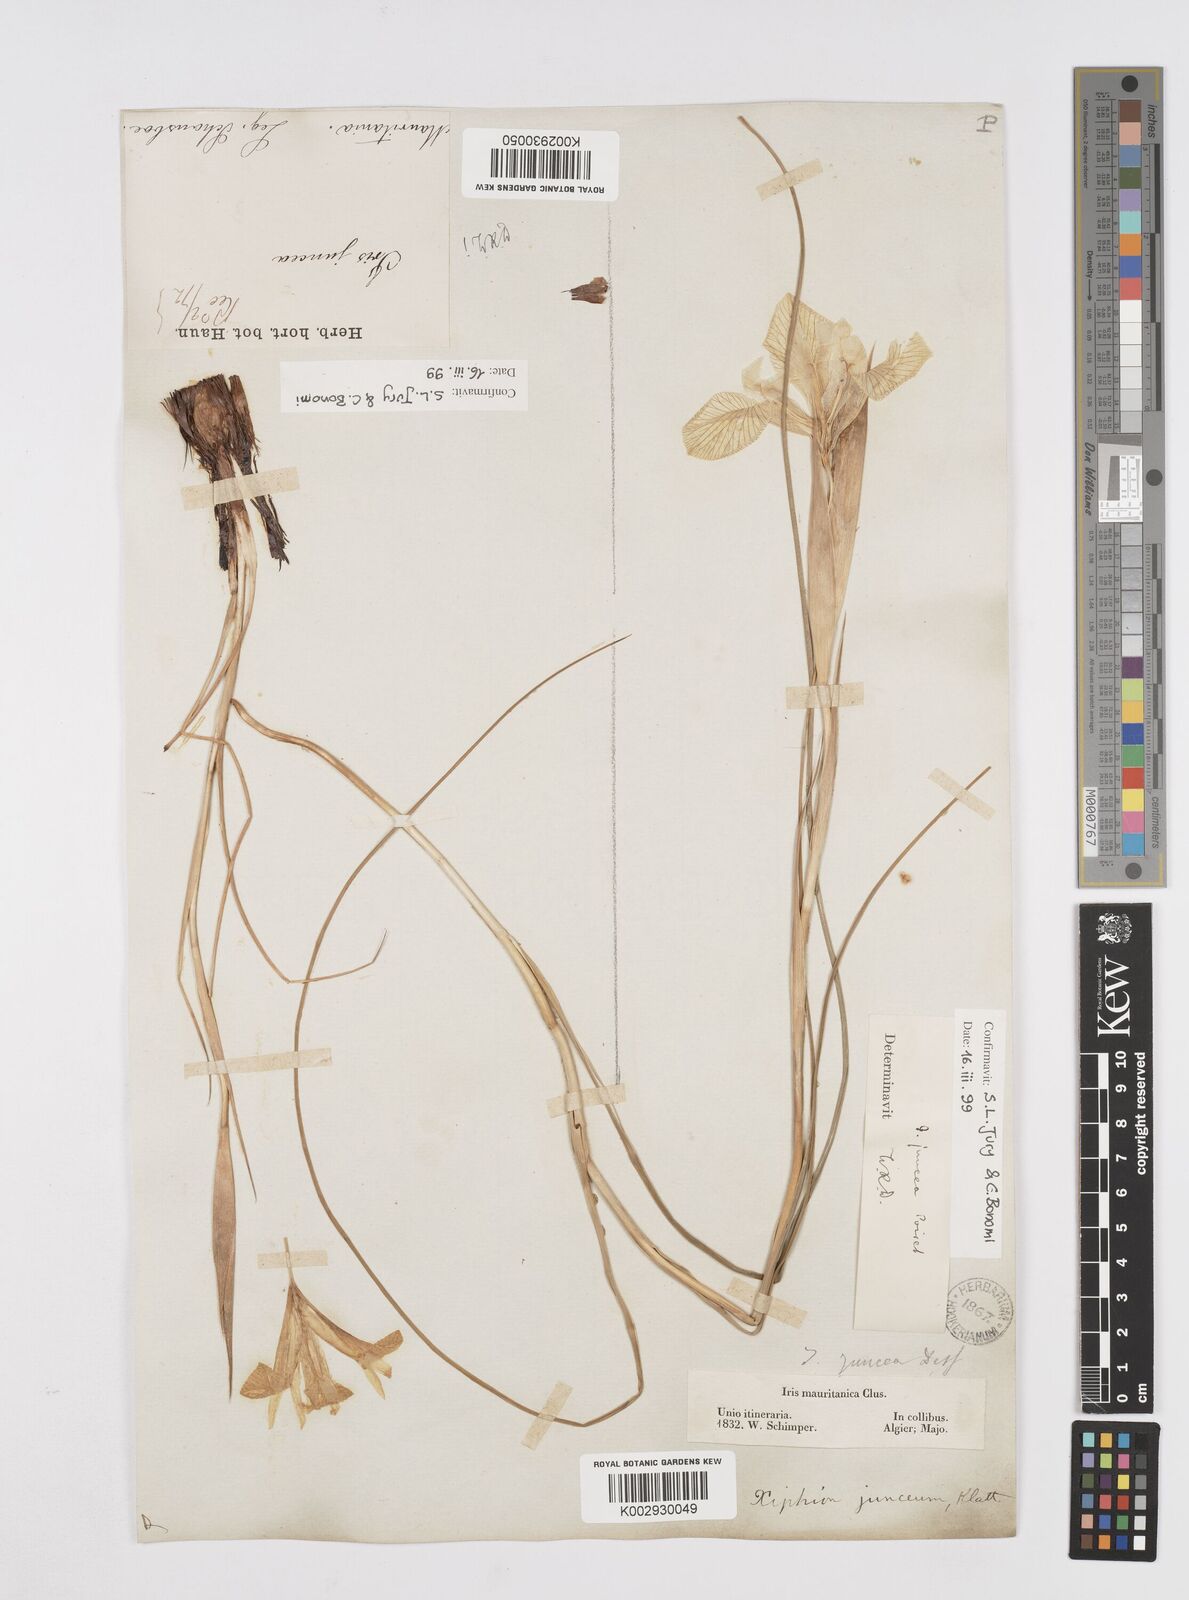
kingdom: Plantae
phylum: Tracheophyta
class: Liliopsida
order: Asparagales
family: Iridaceae
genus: Iris
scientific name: Iris juncea
